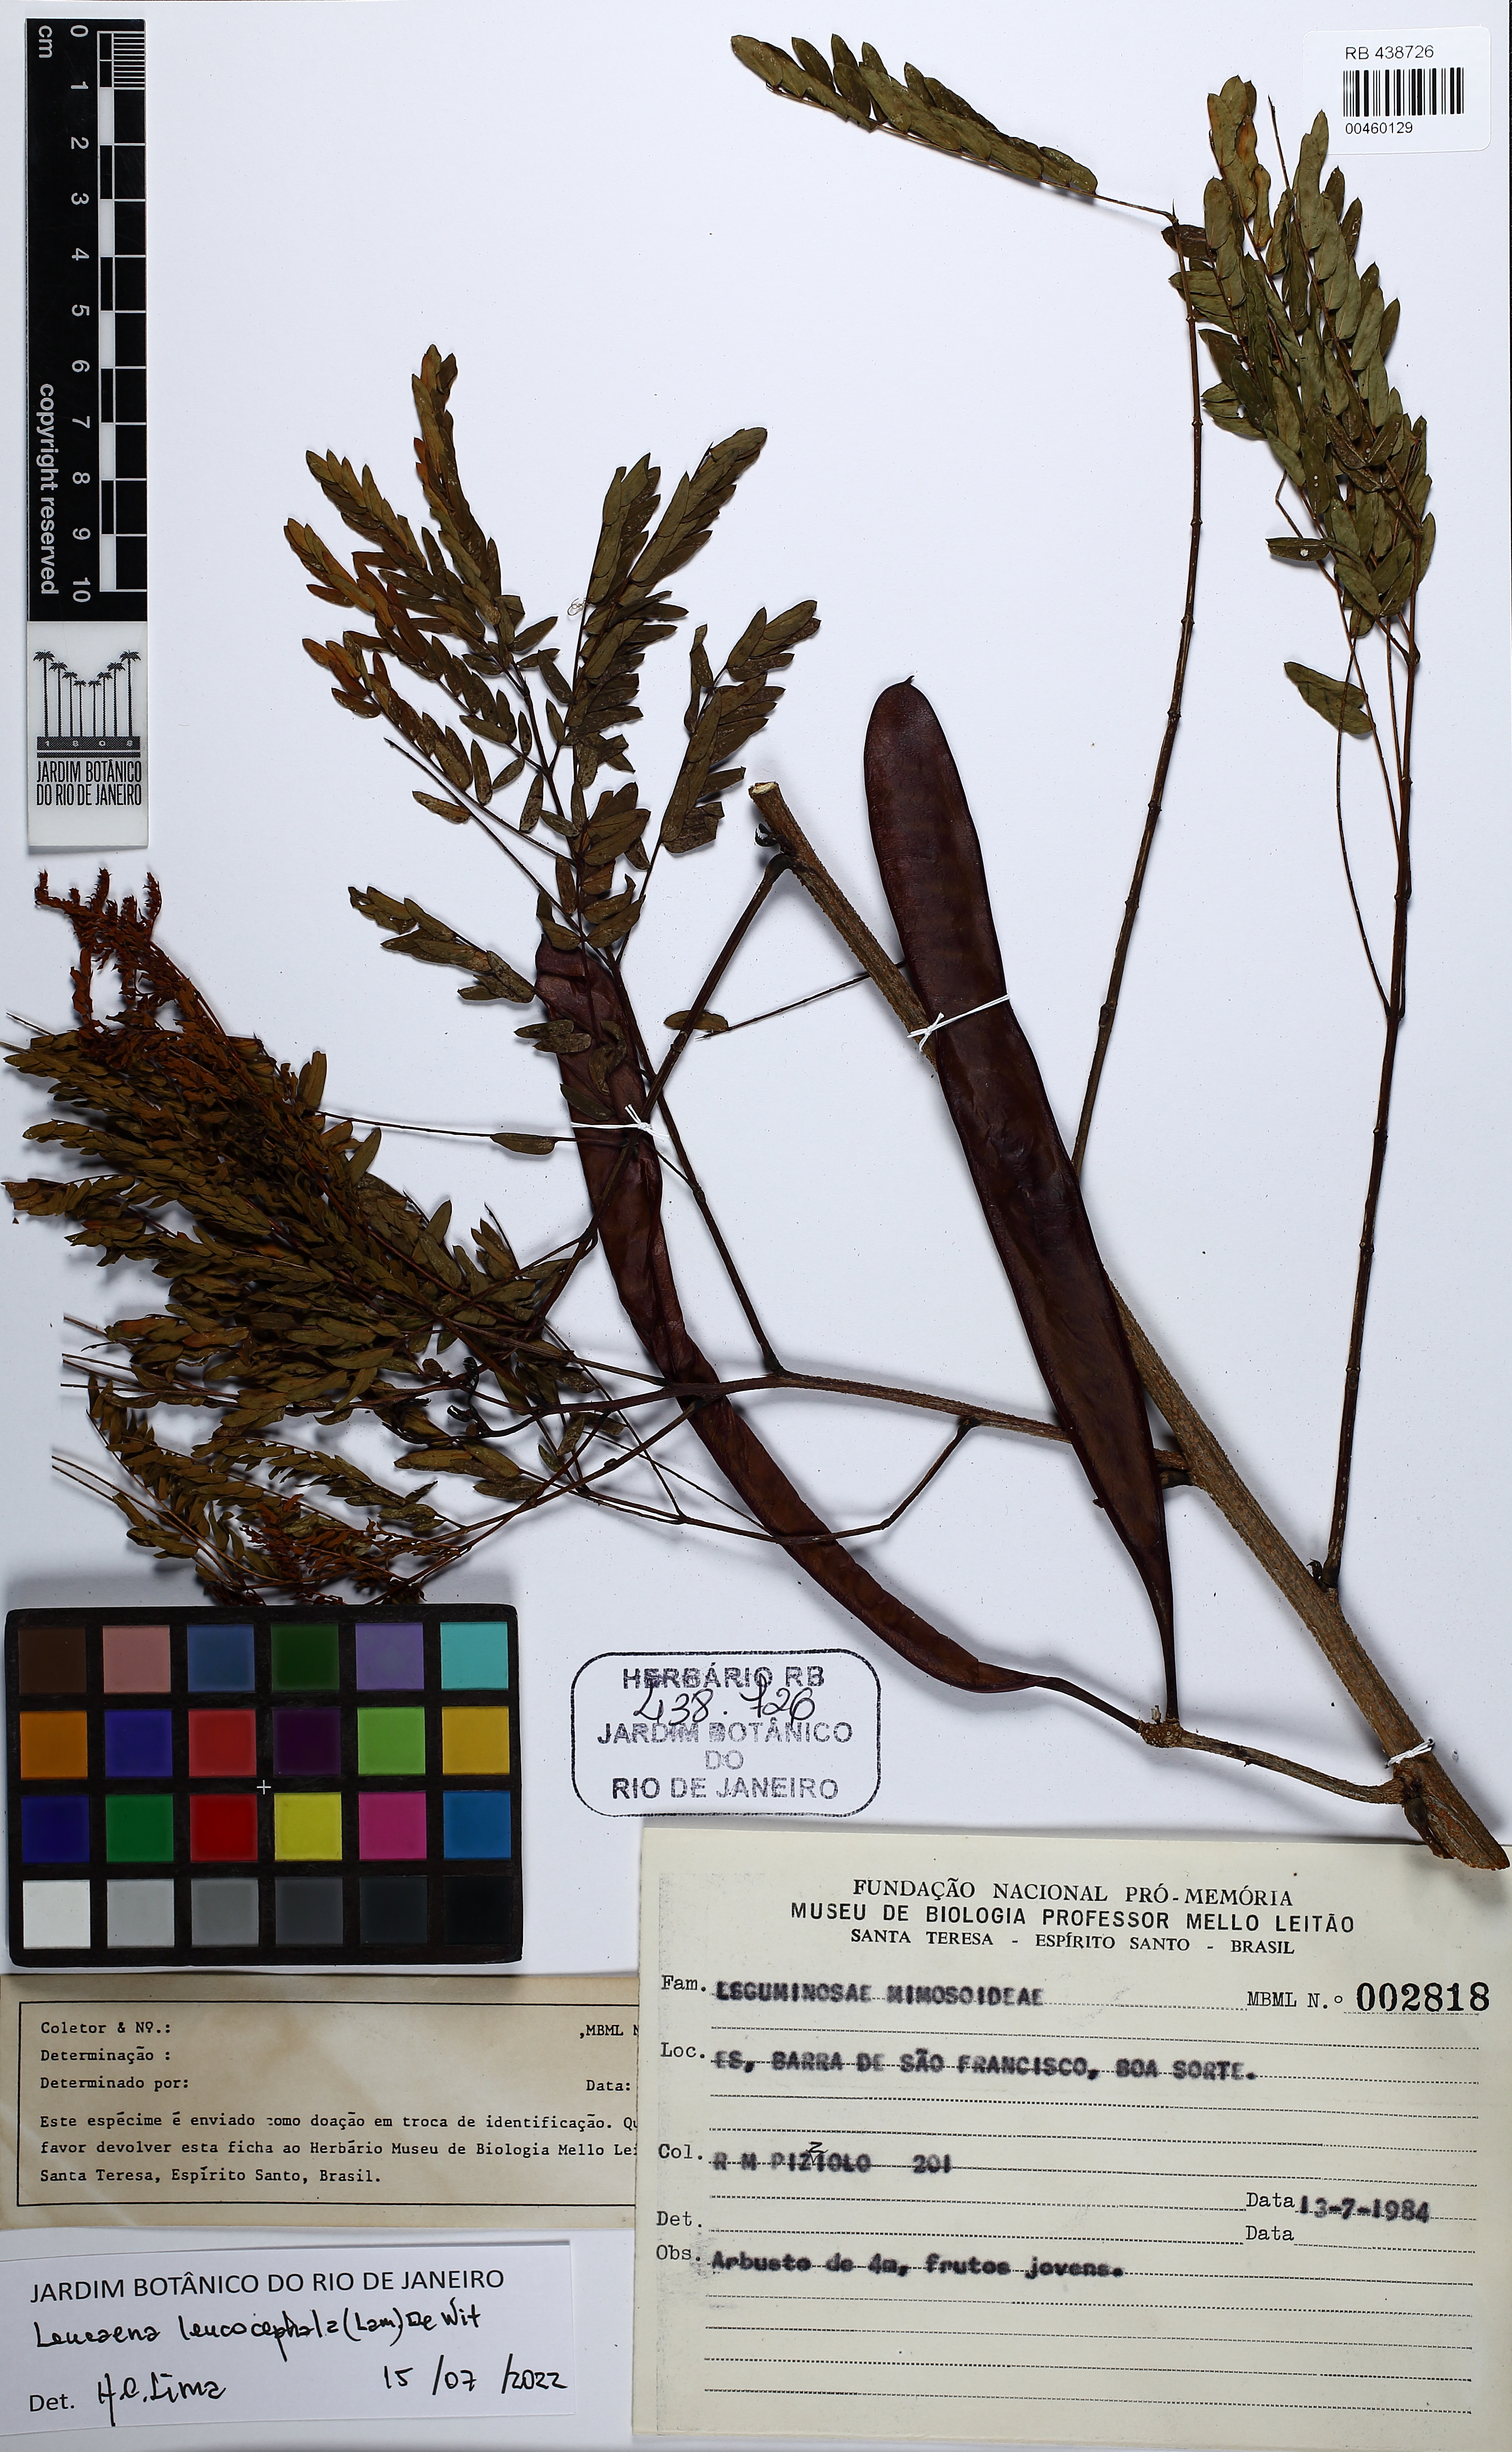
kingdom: Plantae
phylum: Tracheophyta
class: Magnoliopsida
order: Fabales
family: Fabaceae
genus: Leucaena
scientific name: Leucaena leucocephala
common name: White leadtree
